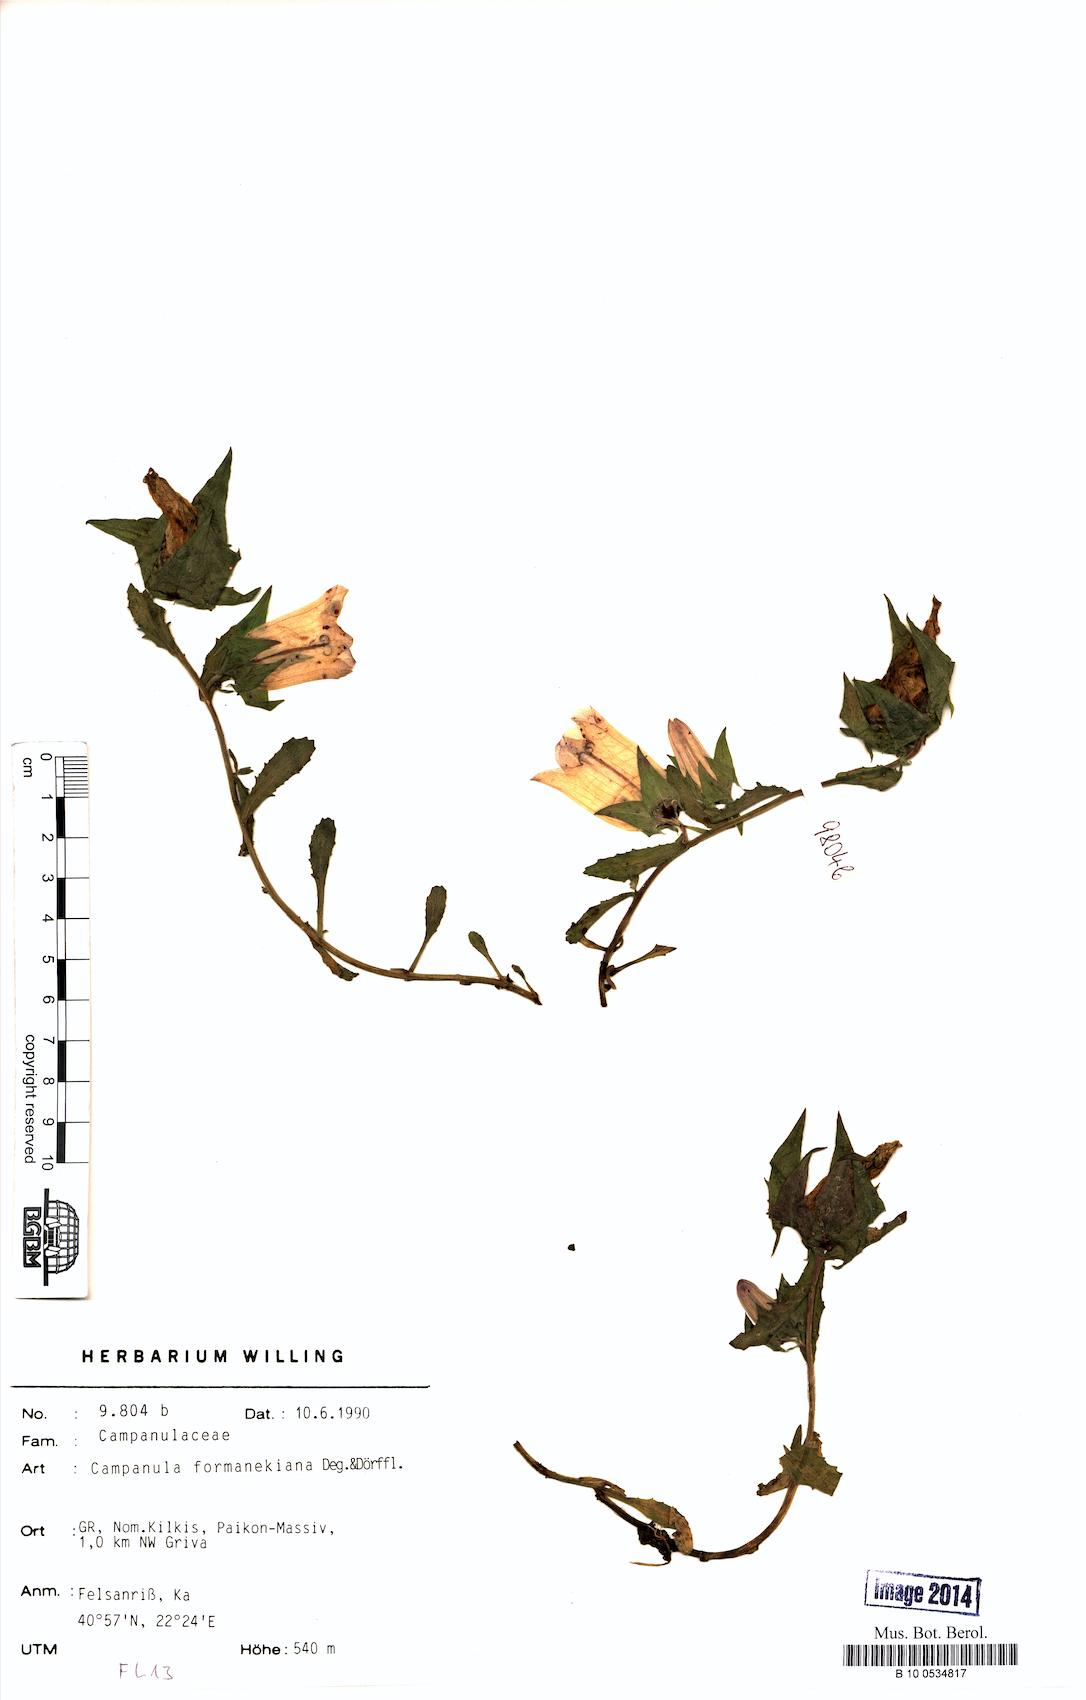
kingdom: Plantae
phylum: Tracheophyta
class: Magnoliopsida
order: Asterales
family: Campanulaceae
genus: Campanula
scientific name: Campanula formanekiana
